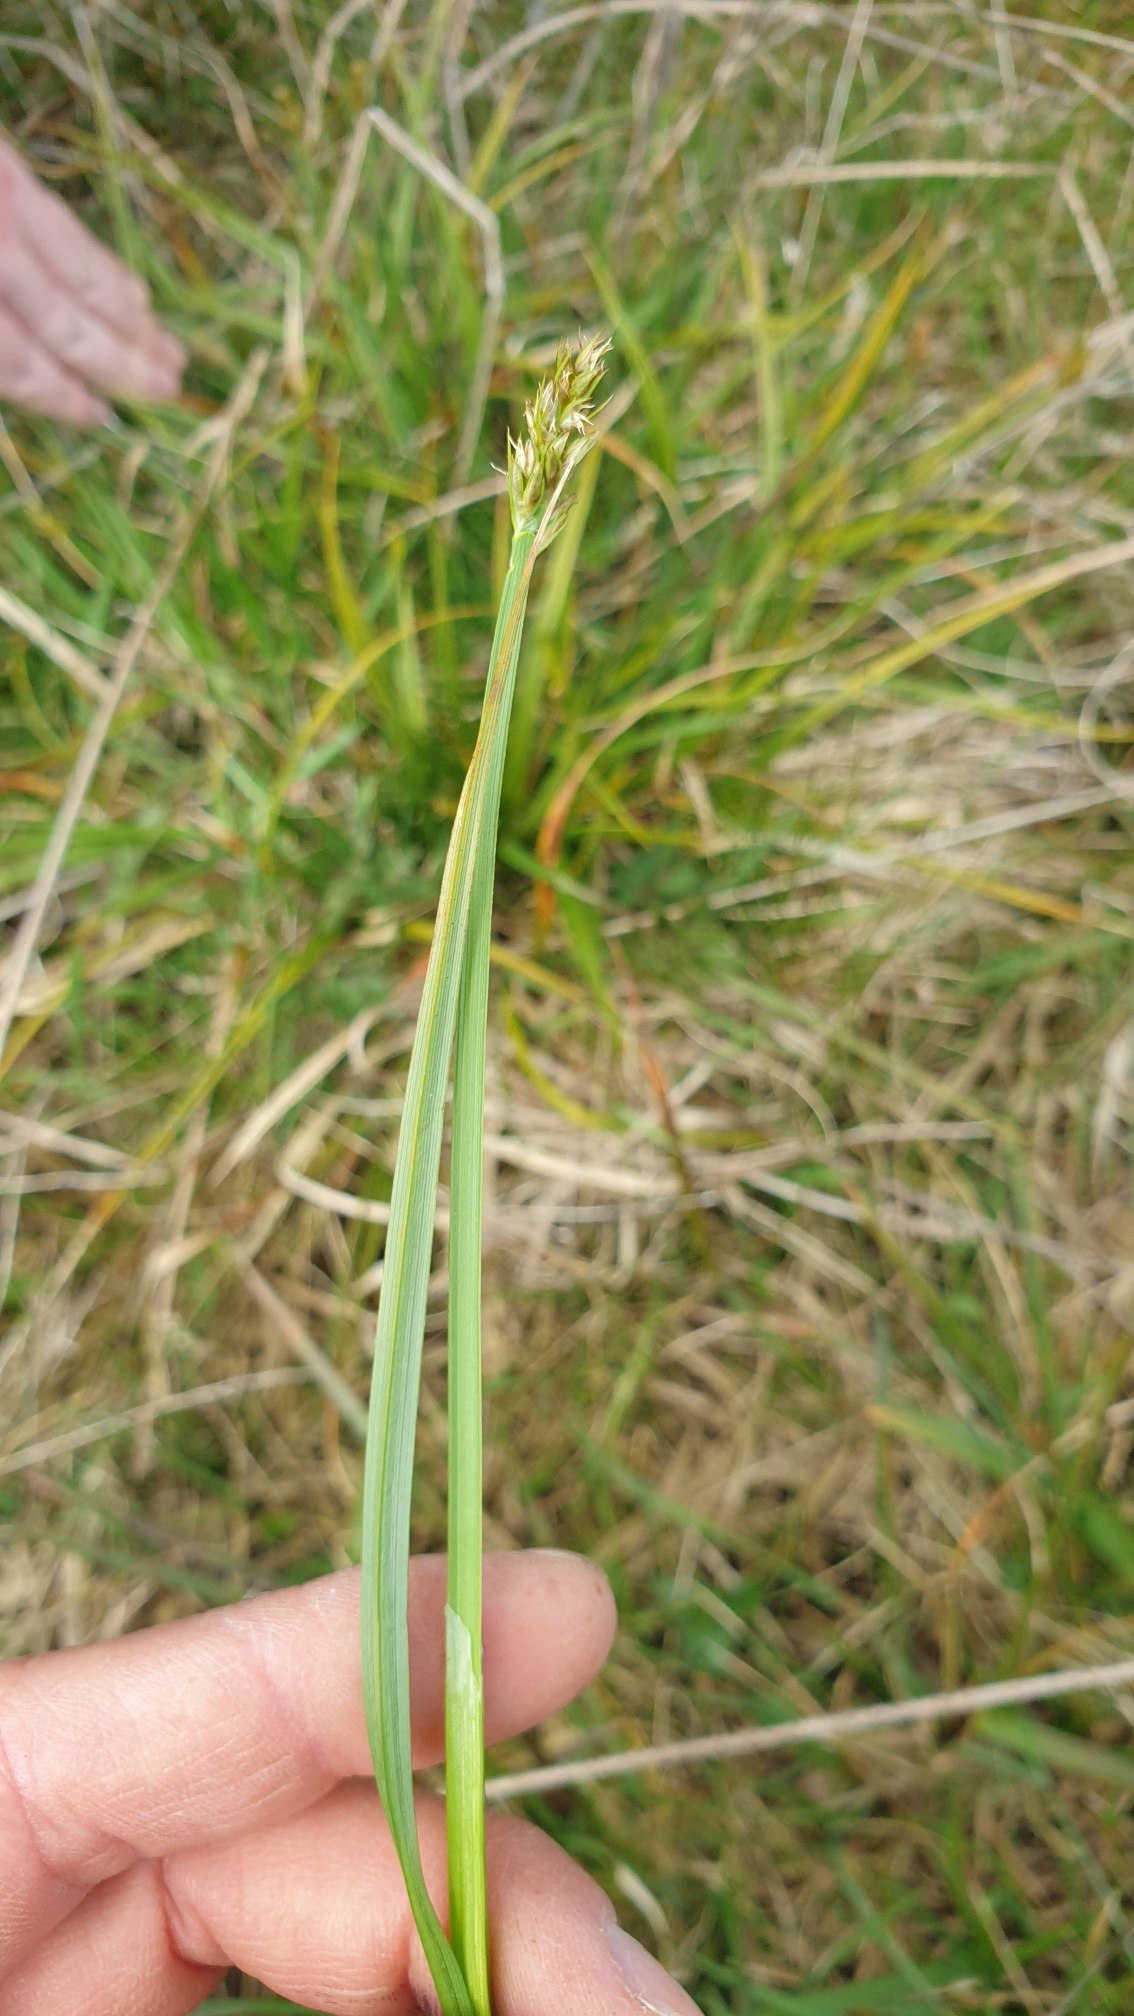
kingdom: Plantae
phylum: Tracheophyta
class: Liliopsida
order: Poales
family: Cyperaceae
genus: Carex
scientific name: Carex otrubae
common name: Sylt-star
